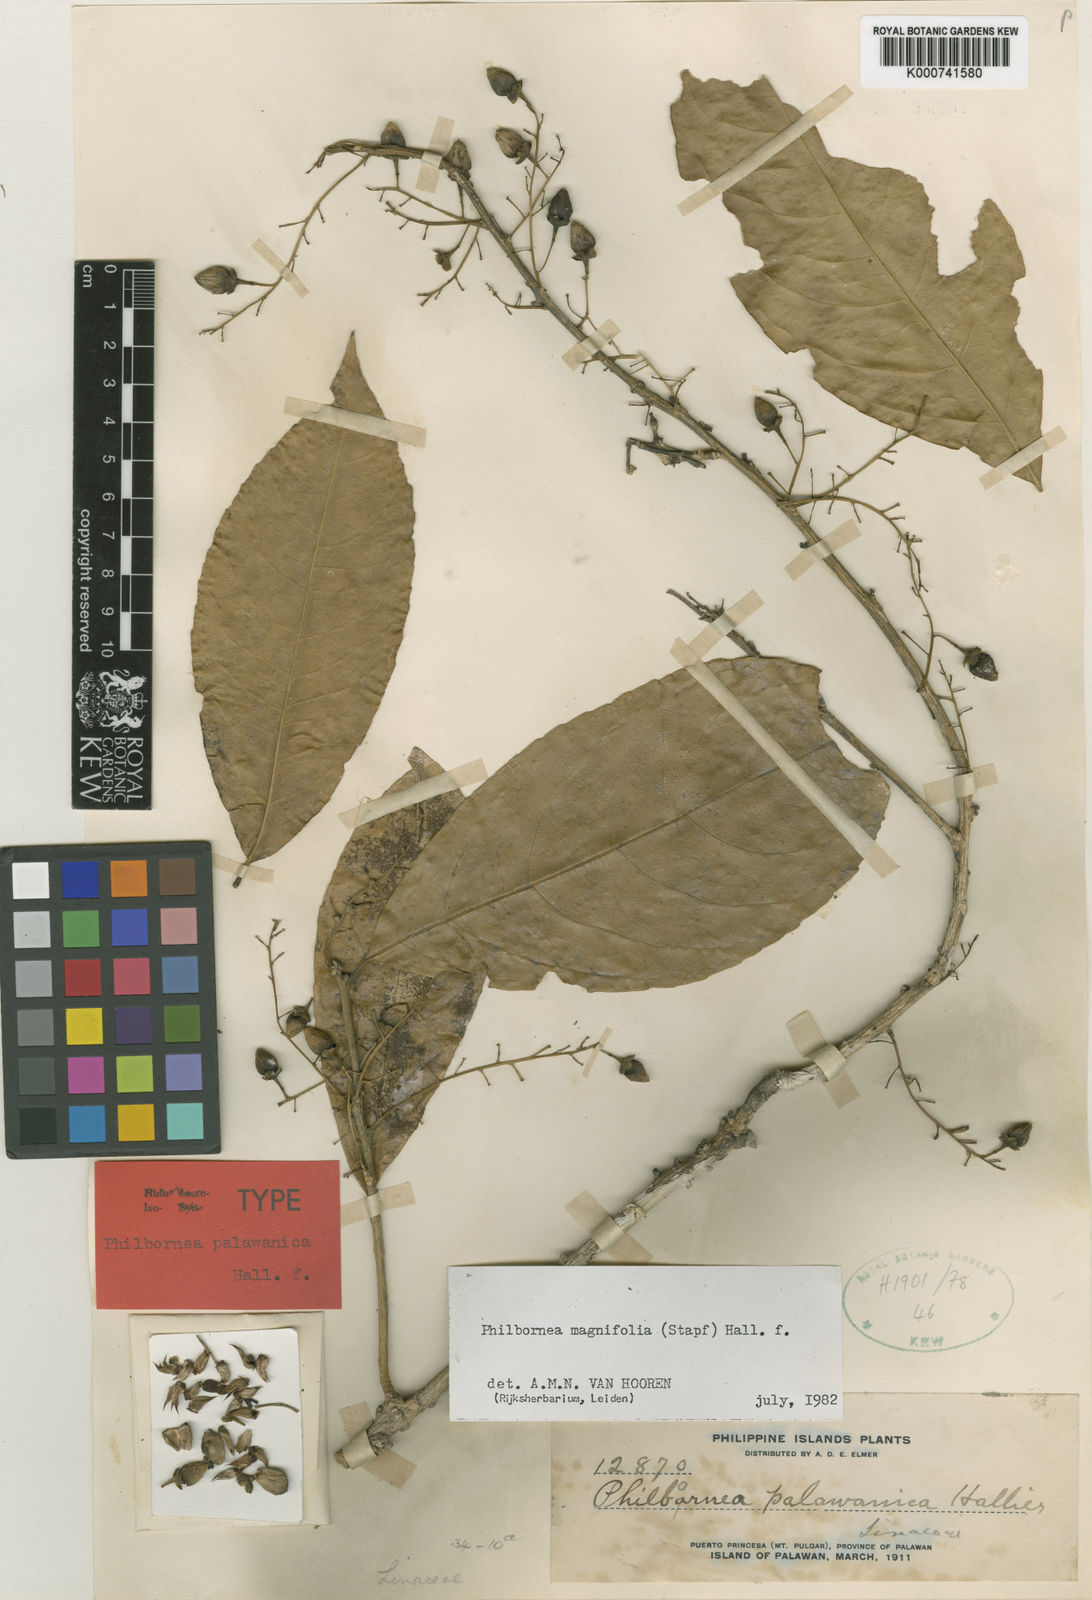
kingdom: Plantae
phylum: Tracheophyta
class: Magnoliopsida
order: Malpighiales
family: Linaceae
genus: Philbornea
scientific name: Philbornea magnifolia
